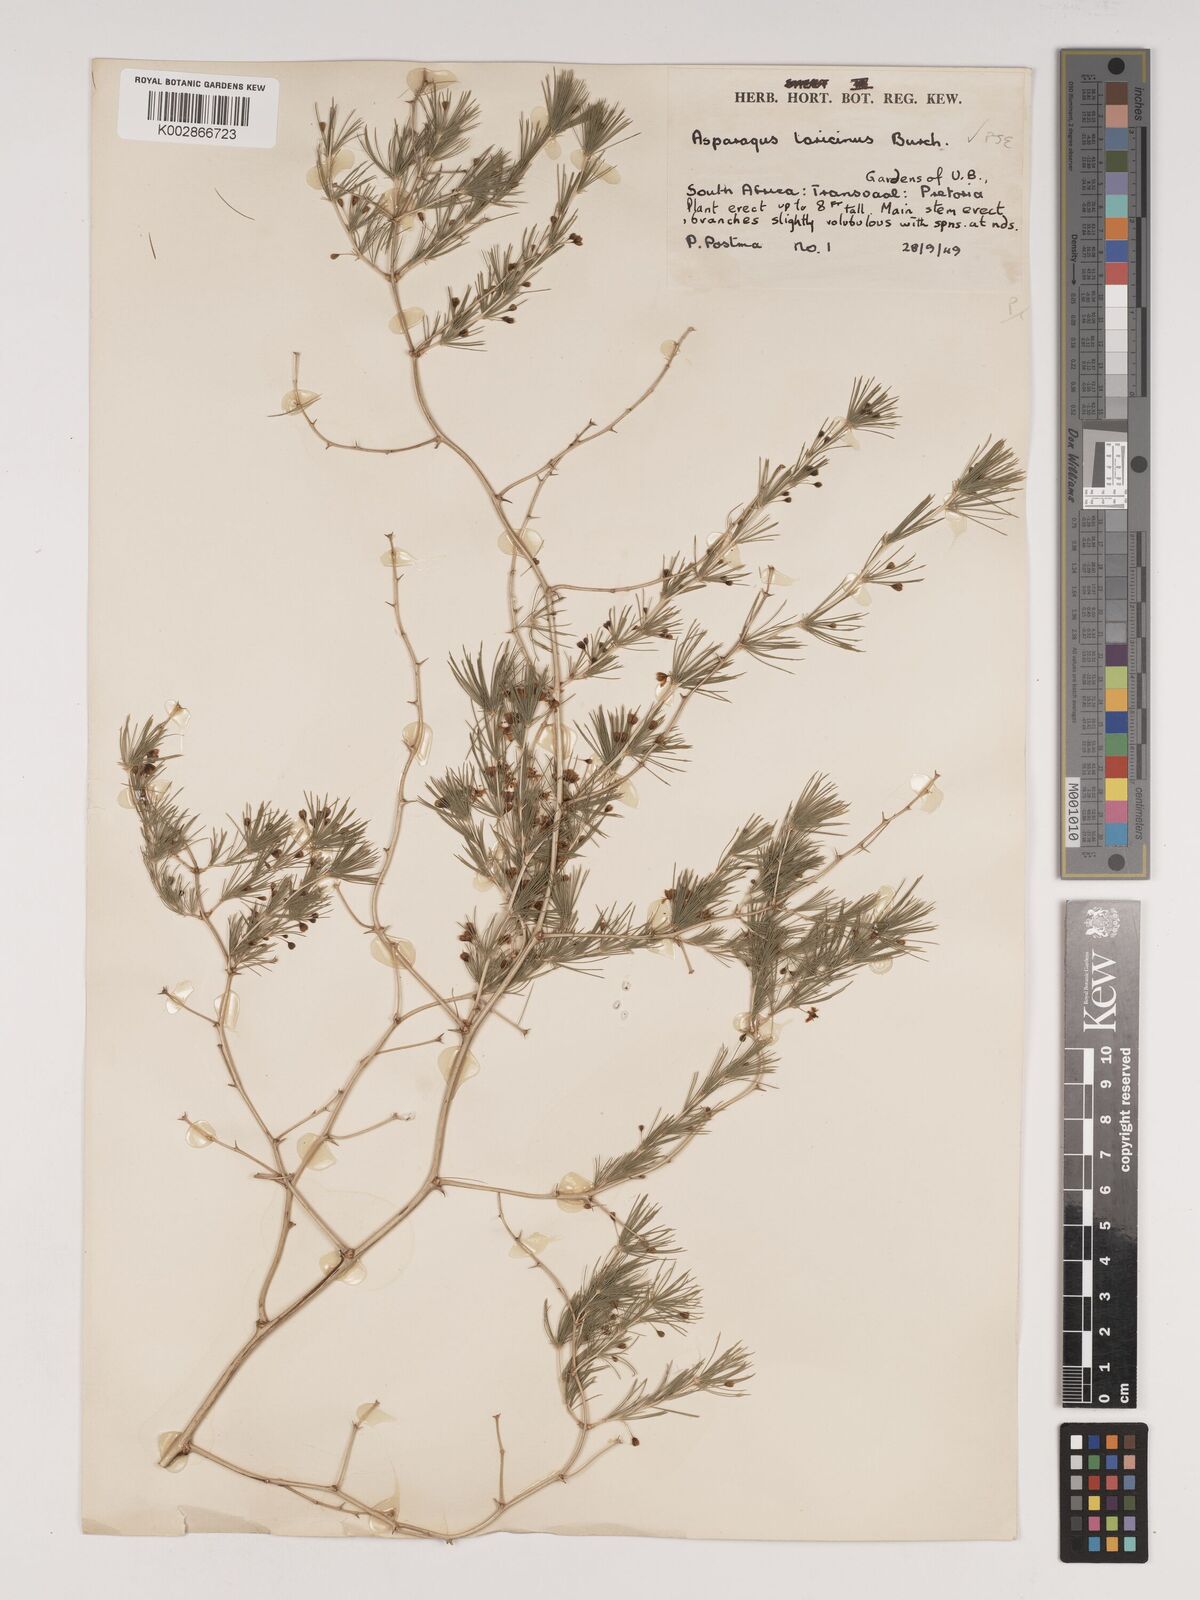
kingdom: Plantae
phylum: Tracheophyta
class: Liliopsida
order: Asparagales
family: Asparagaceae
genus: Asparagus
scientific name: Asparagus laricinus
